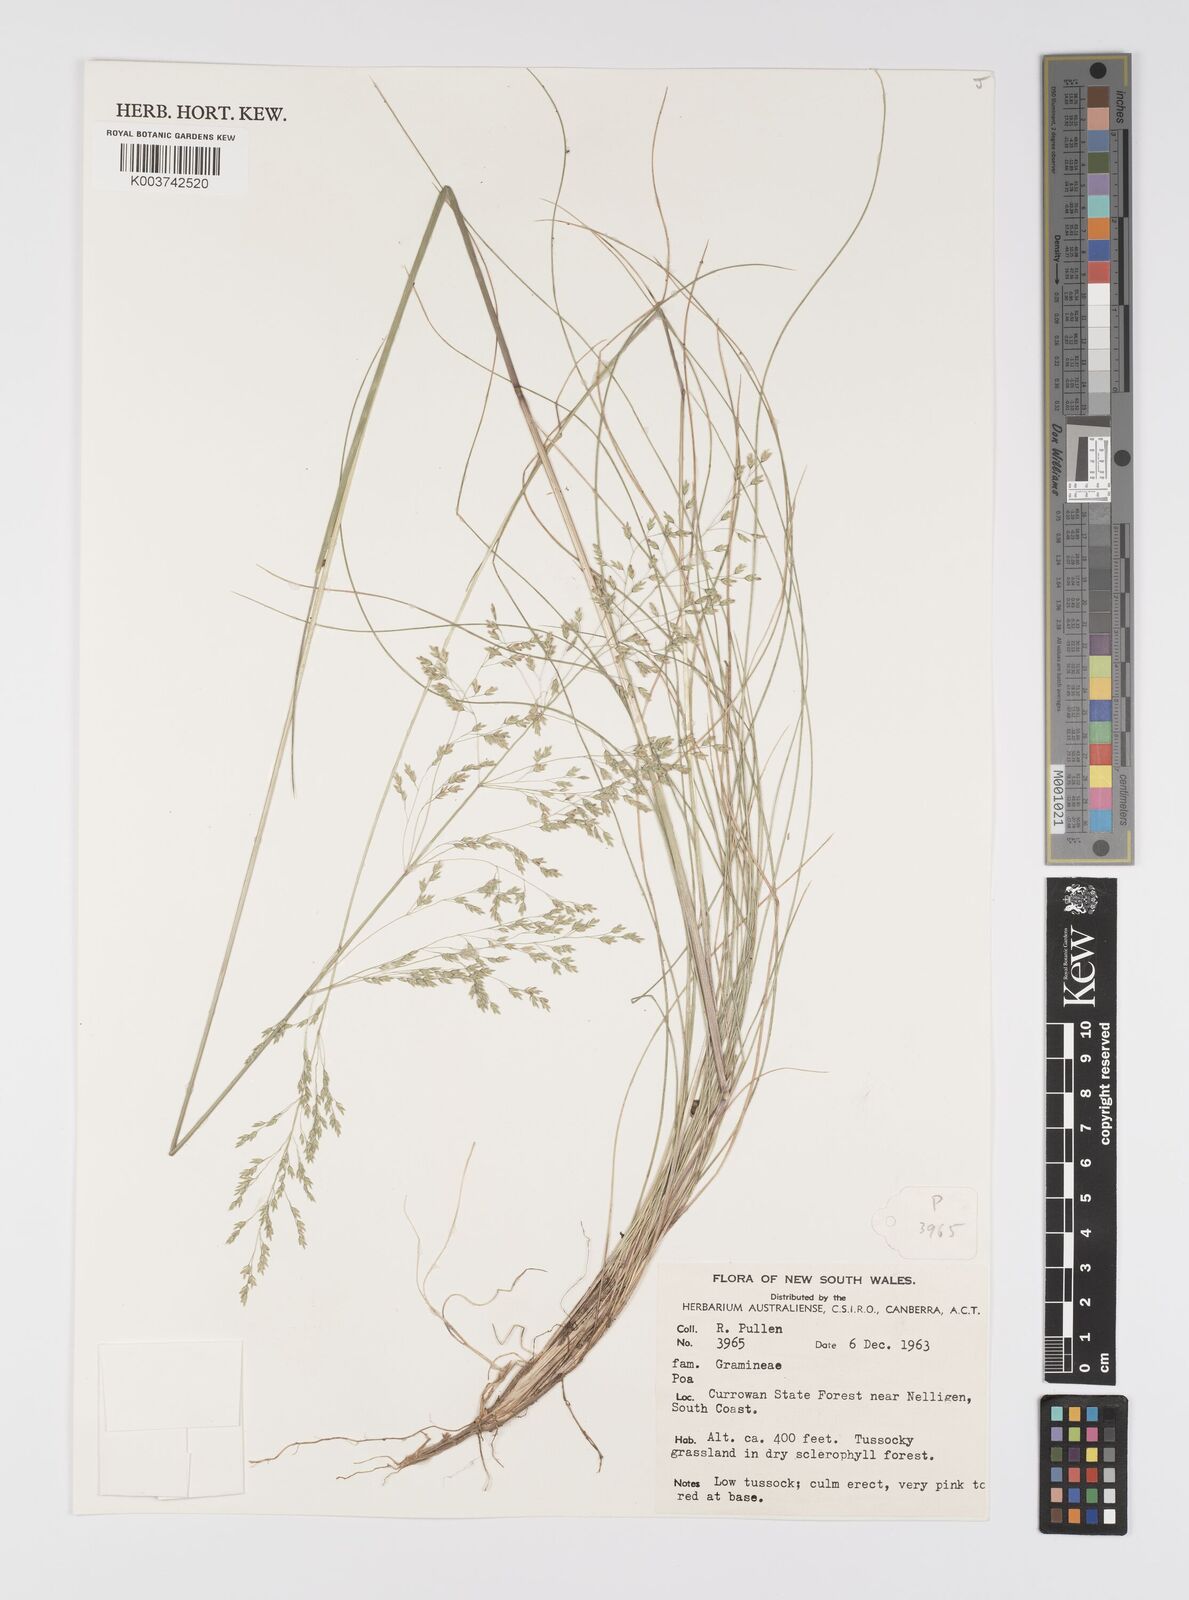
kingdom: Plantae
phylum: Tracheophyta
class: Liliopsida
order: Poales
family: Poaceae
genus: Poa
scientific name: Poa
